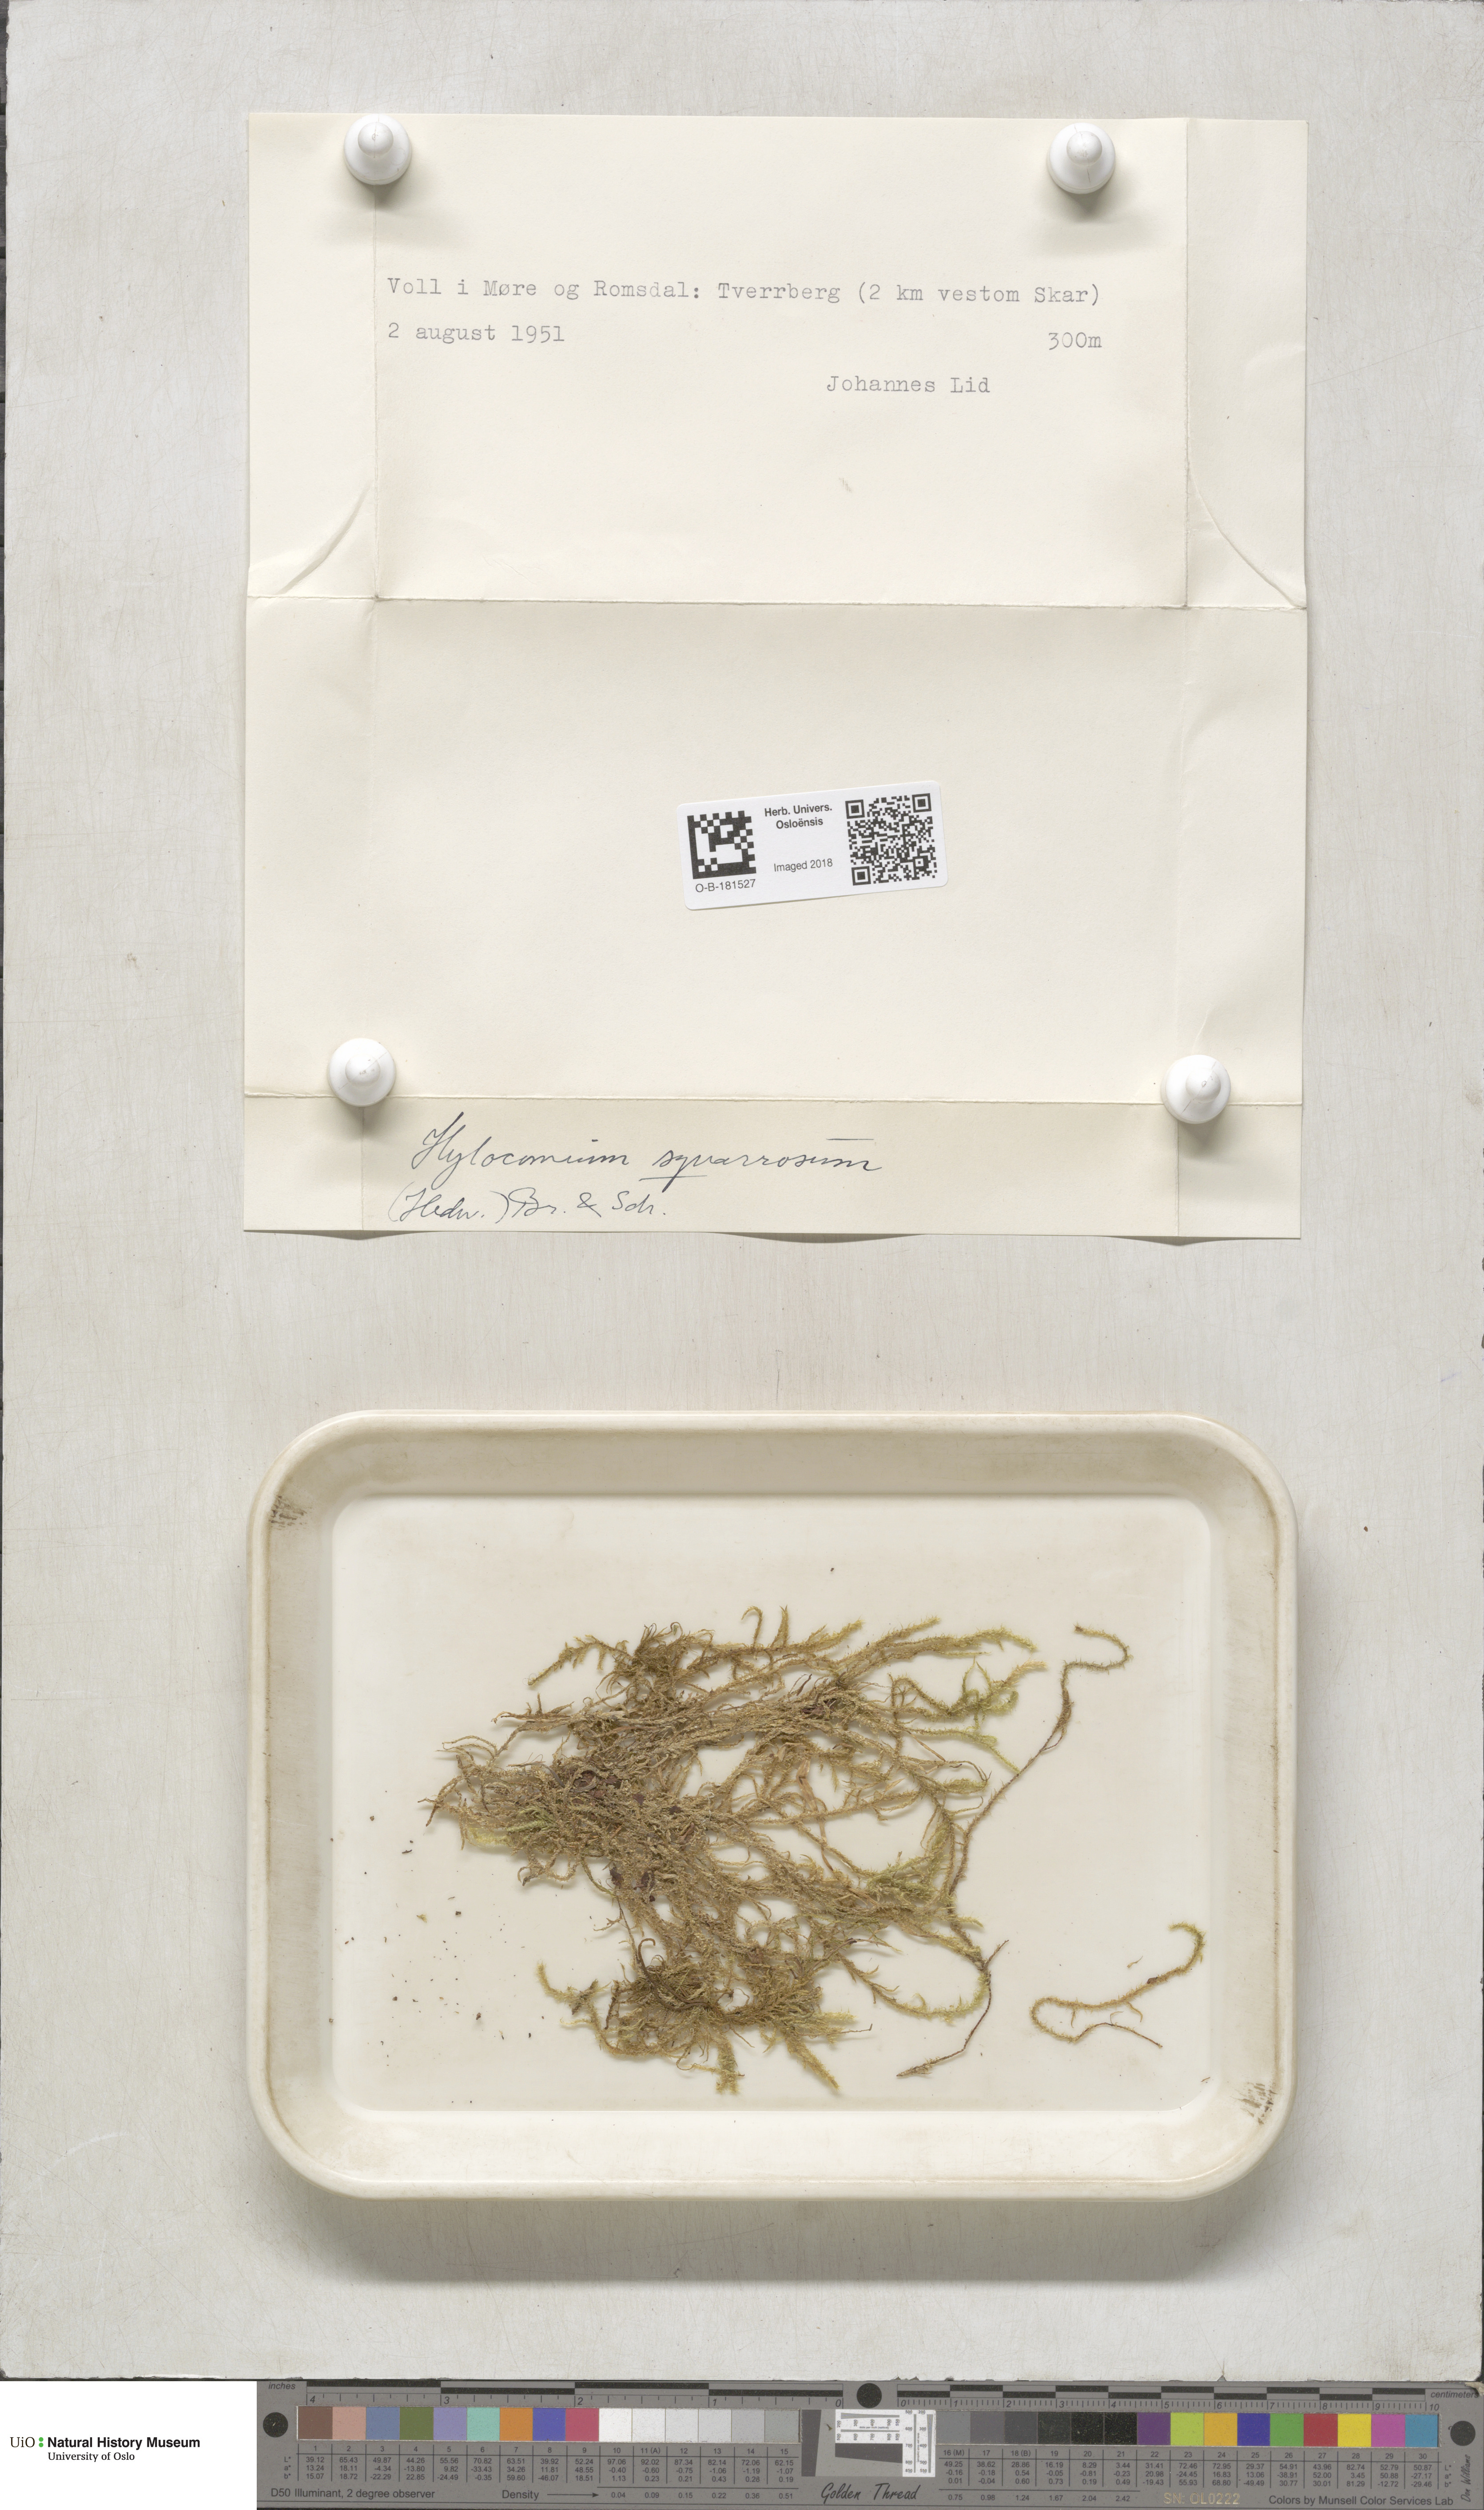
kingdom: Plantae
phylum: Bryophyta
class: Bryopsida
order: Hypnales
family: Hylocomiaceae
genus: Rhytidiadelphus
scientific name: Rhytidiadelphus squarrosus
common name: Springy turf-moss
